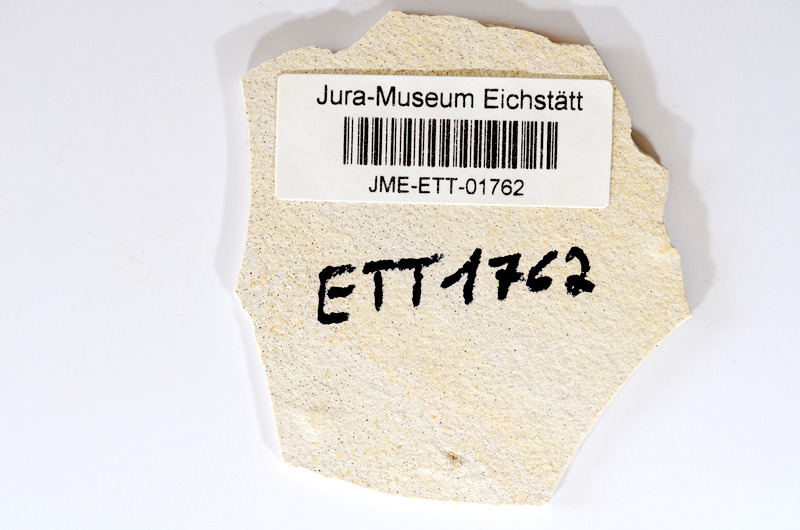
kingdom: Animalia
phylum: Chordata
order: Salmoniformes
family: Orthogonikleithridae
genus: Orthogonikleithrus
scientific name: Orthogonikleithrus hoelli
